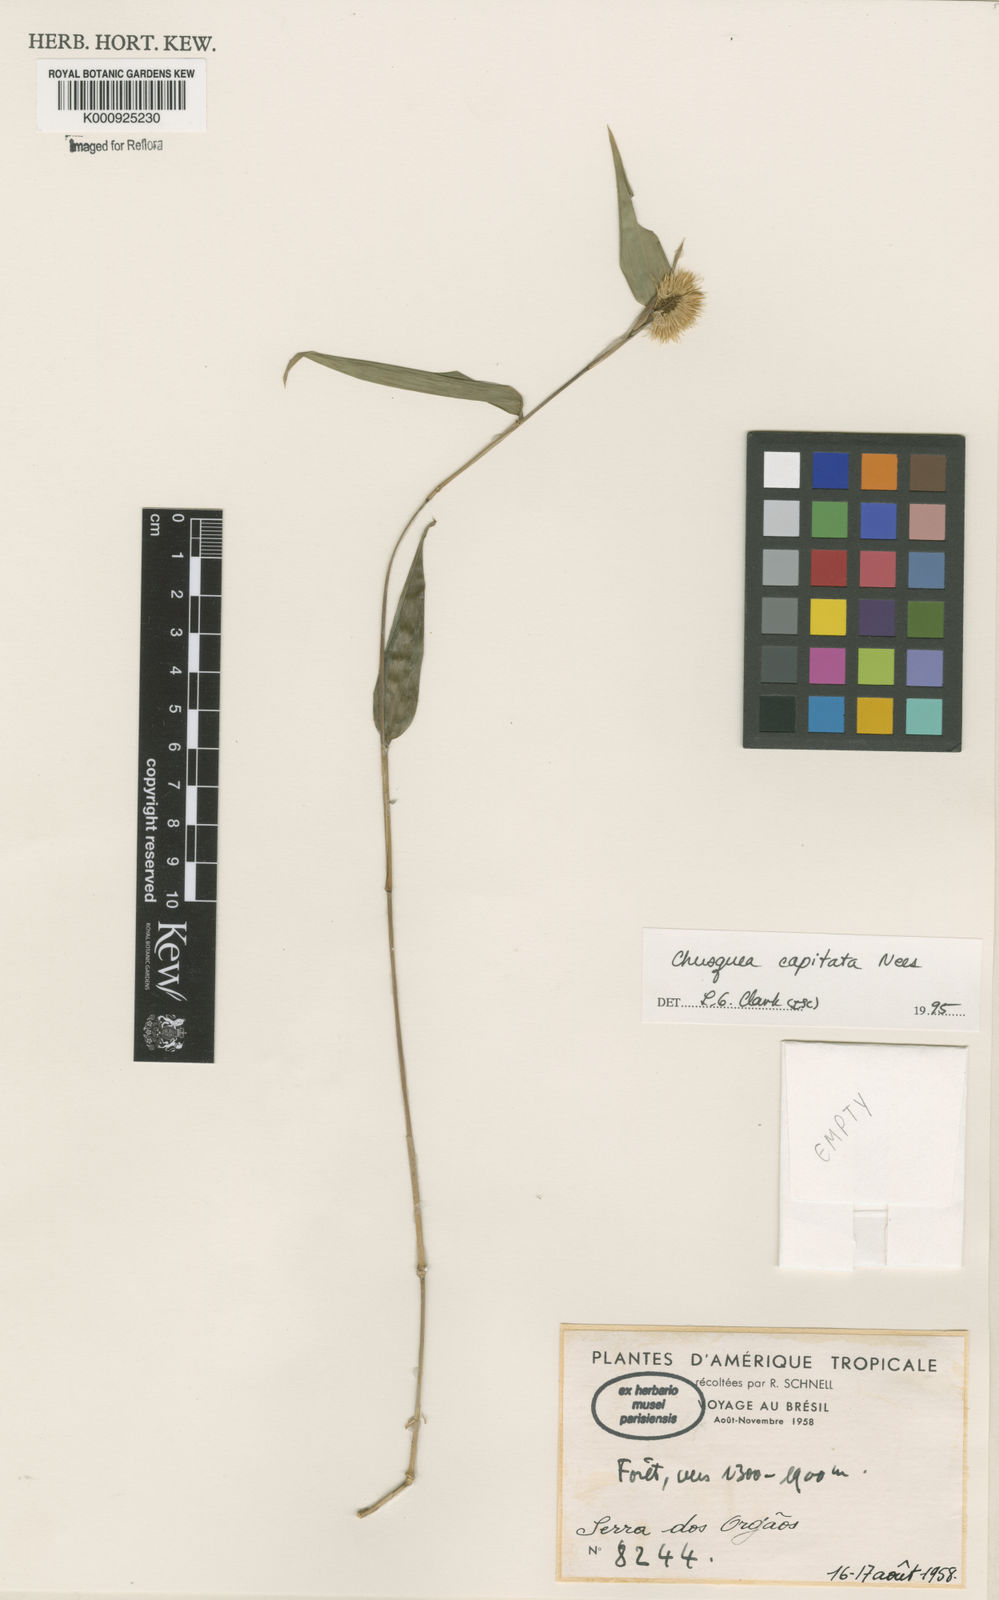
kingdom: Plantae
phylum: Tracheophyta
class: Liliopsida
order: Poales
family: Poaceae
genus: Chusquea
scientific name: Chusquea capitata
